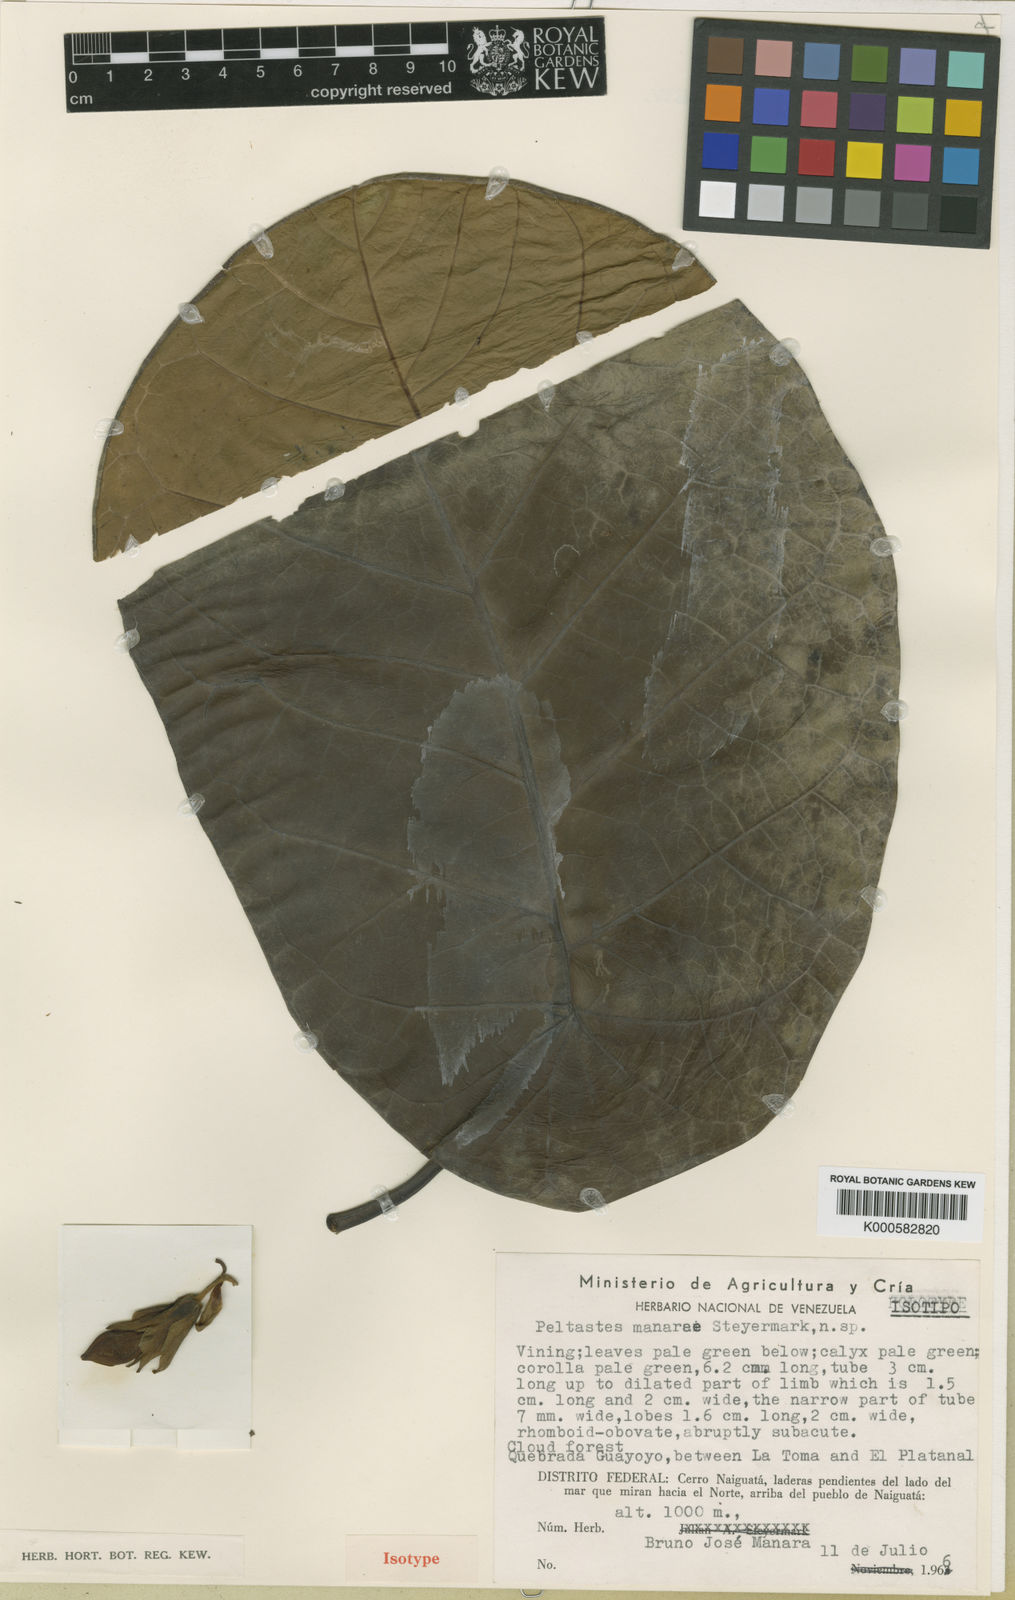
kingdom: Plantae
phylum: Tracheophyta
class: Magnoliopsida
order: Gentianales
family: Apocynaceae
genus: Macropharynx
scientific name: Macropharynx colombiana
